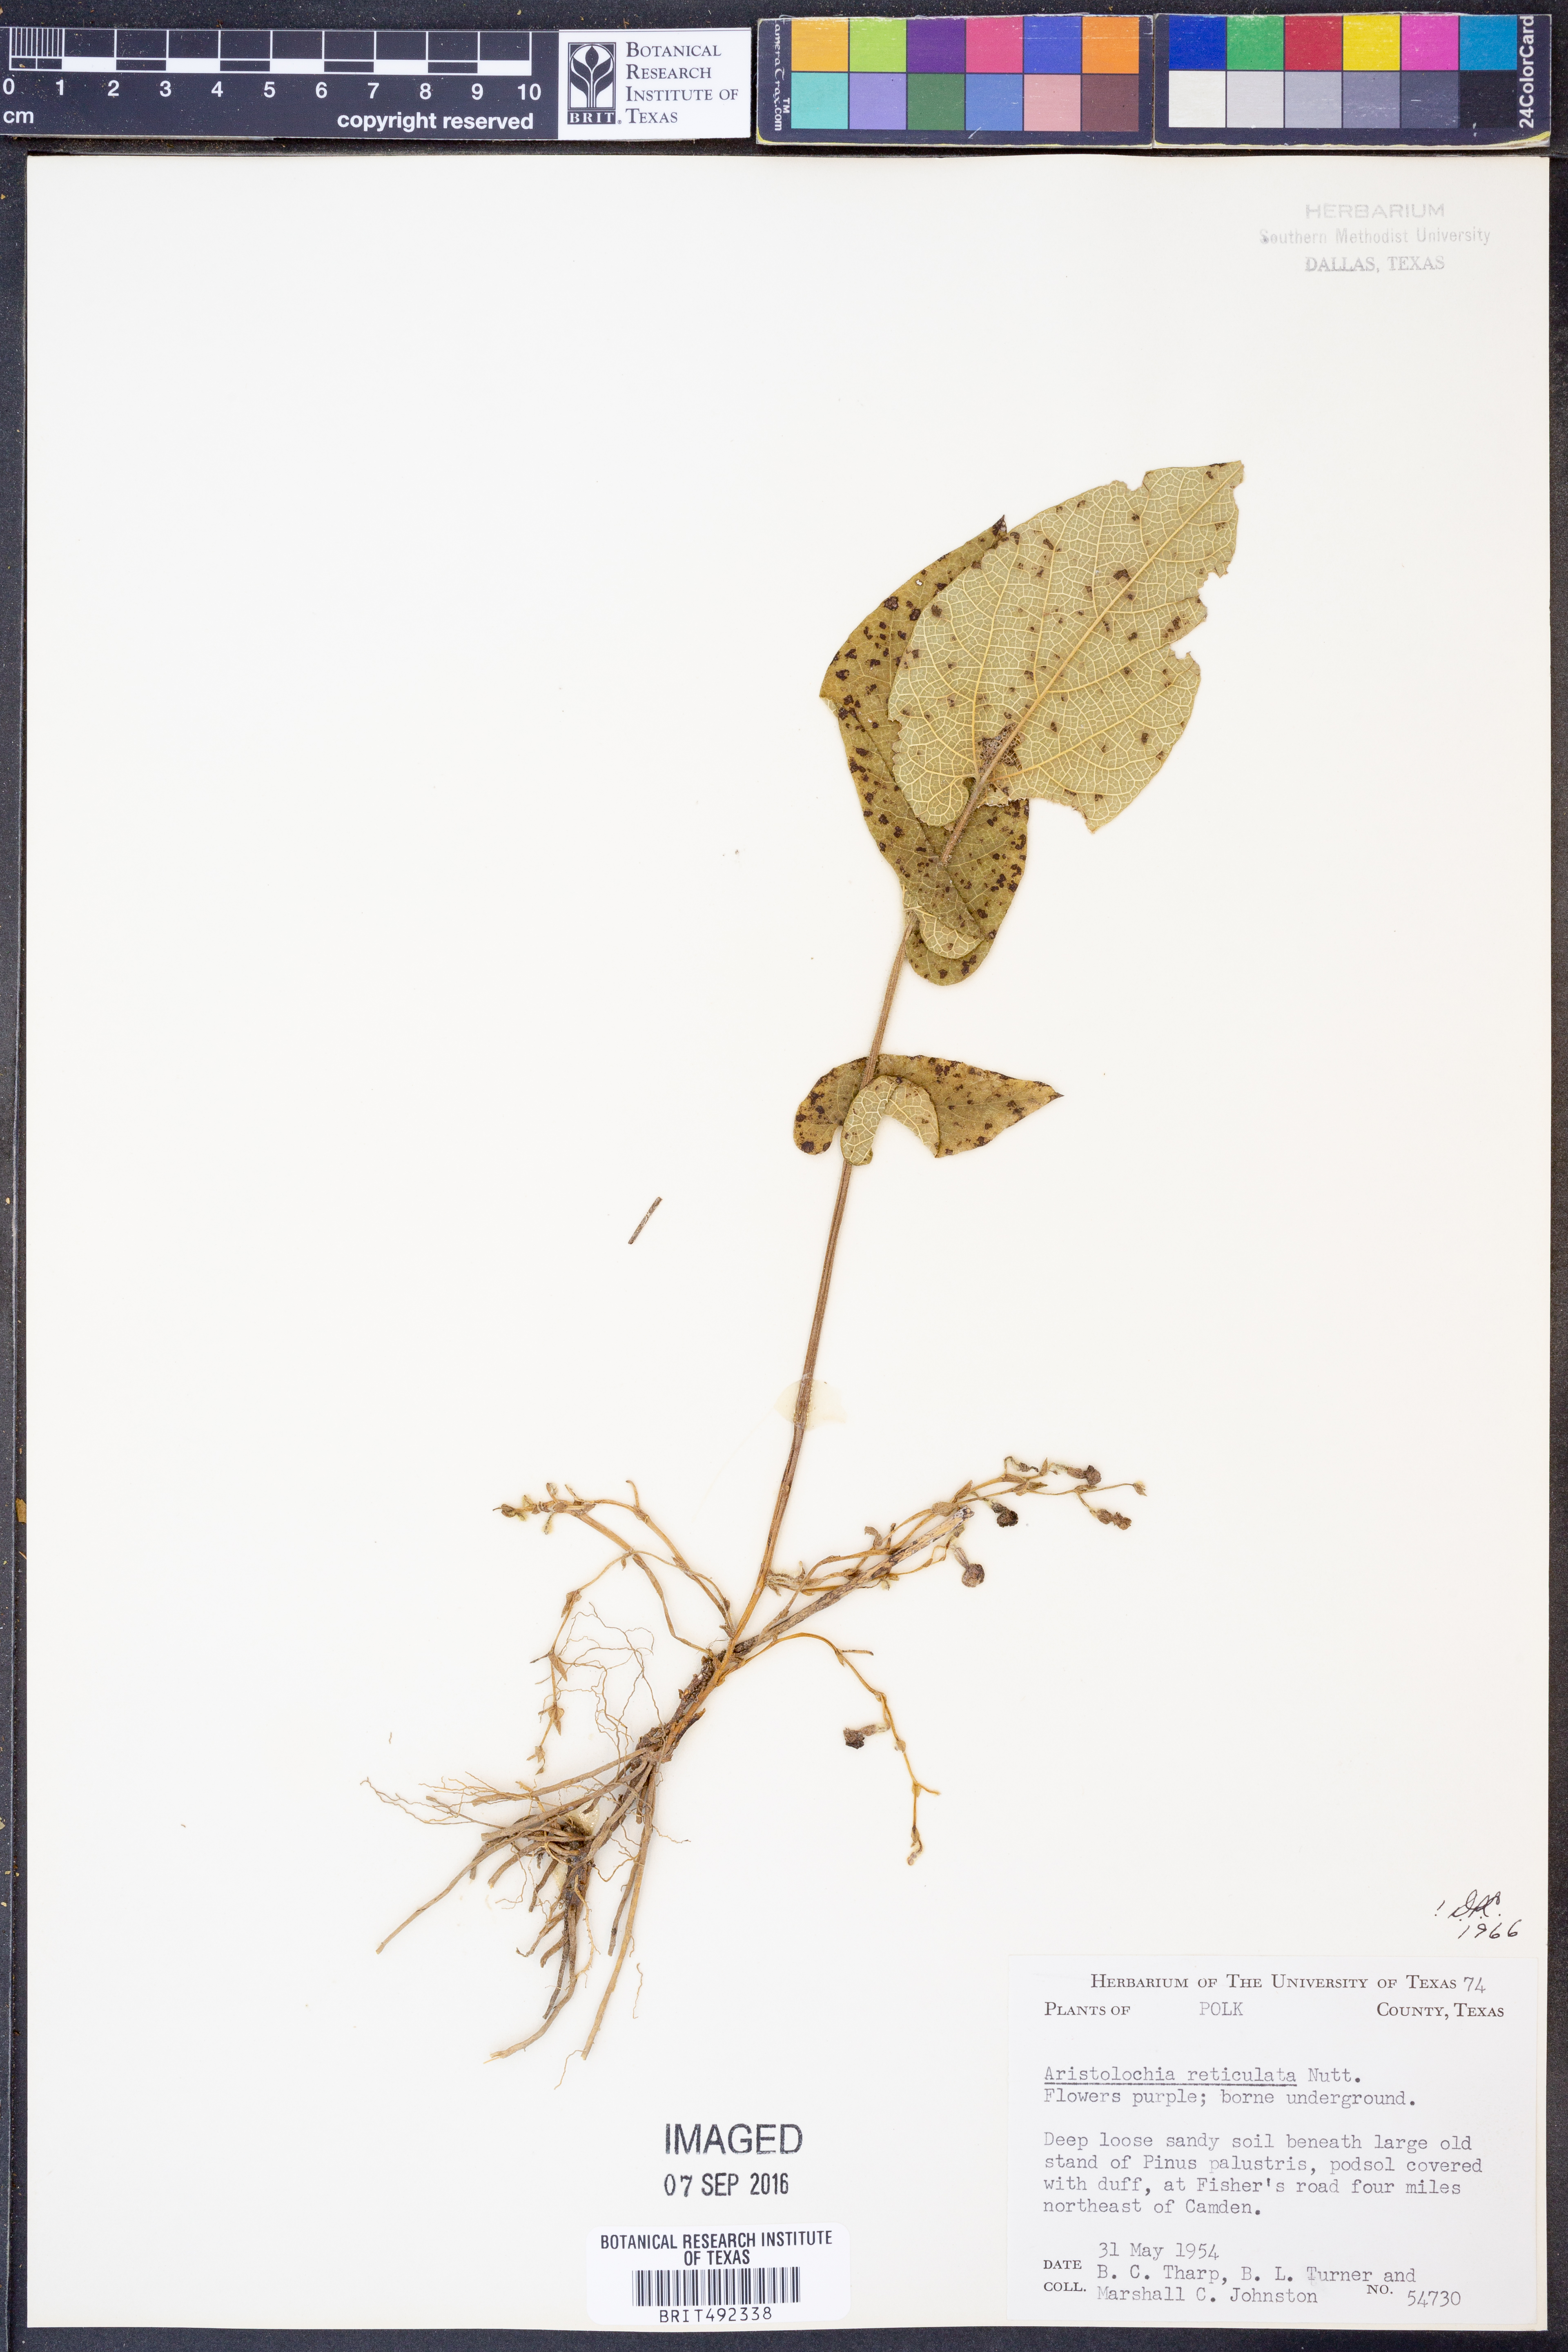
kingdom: Plantae
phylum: Tracheophyta
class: Magnoliopsida
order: Piperales
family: Aristolochiaceae
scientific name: Aristolochiaceae
